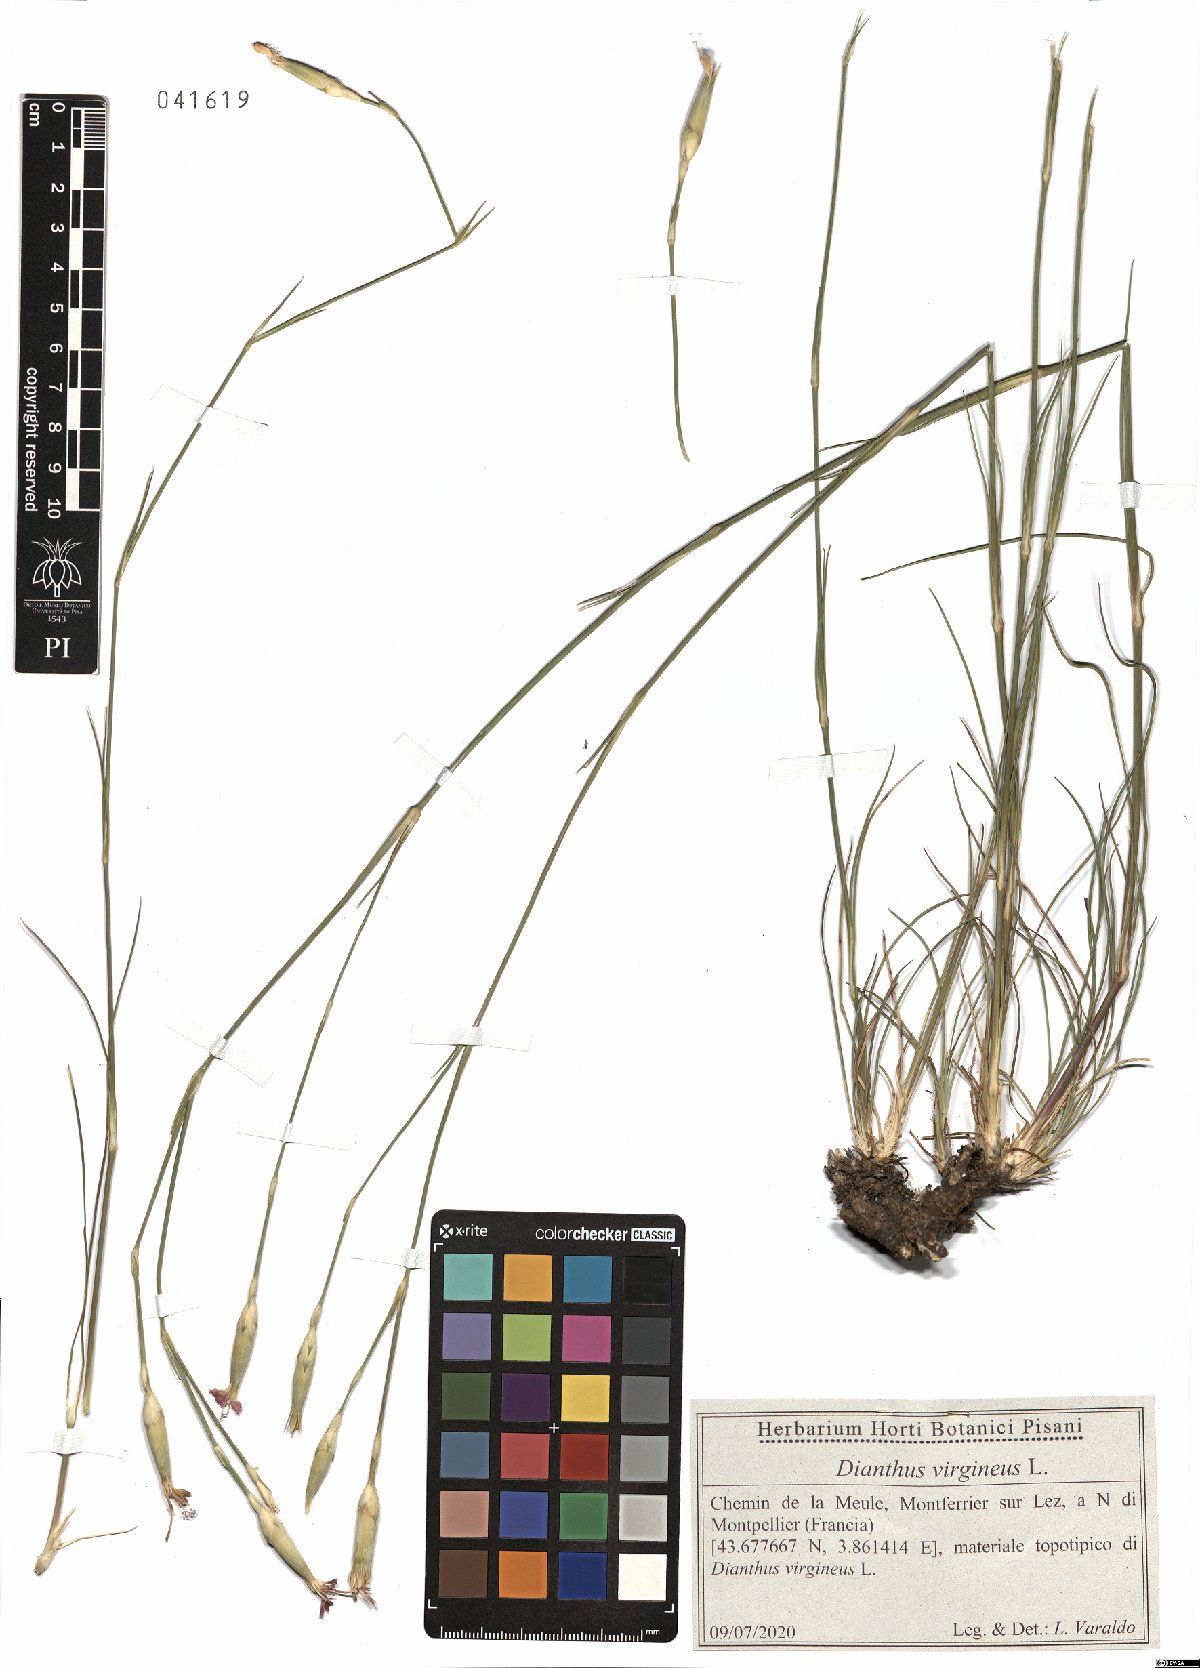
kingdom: Plantae
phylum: Tracheophyta
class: Magnoliopsida
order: Caryophyllales
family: Caryophyllaceae
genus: Dianthus
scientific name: Dianthus virgineus
